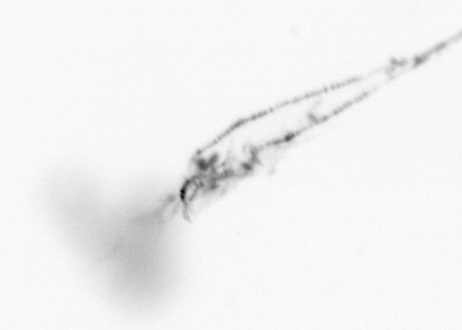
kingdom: Animalia
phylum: Arthropoda
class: Copepoda
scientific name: Copepoda
